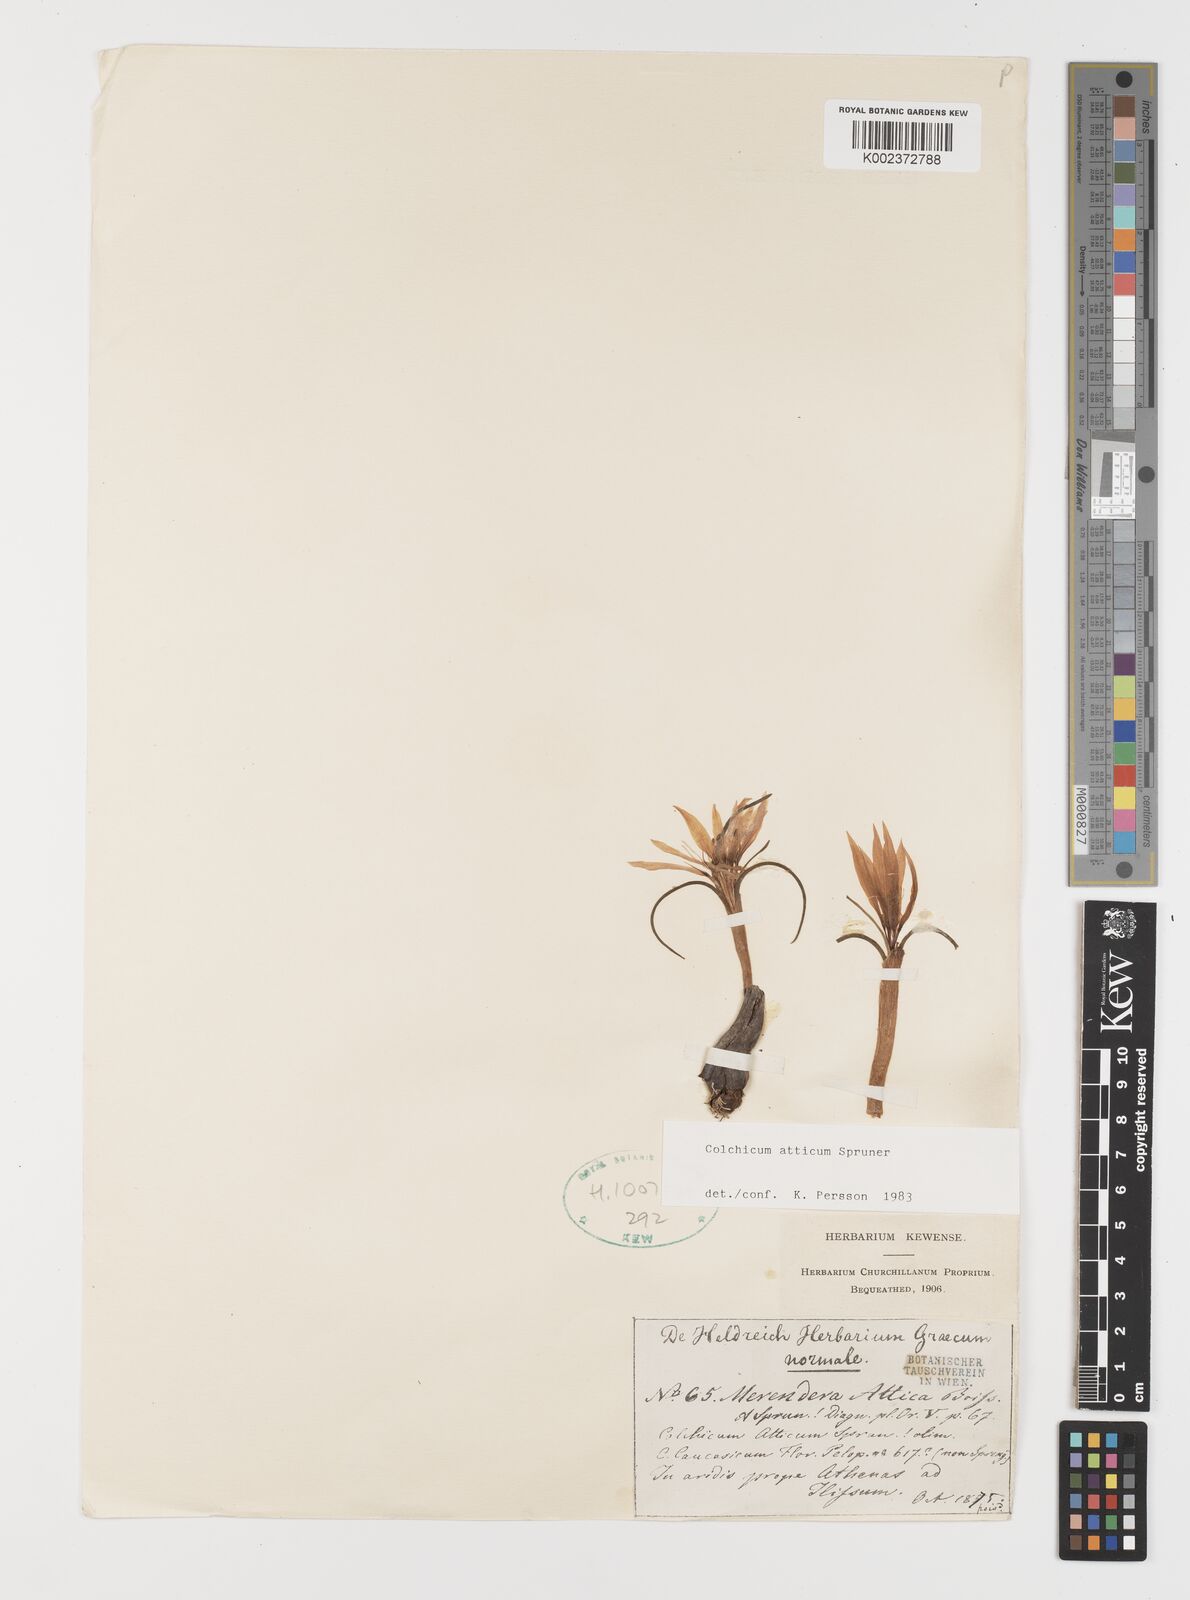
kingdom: Plantae
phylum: Tracheophyta
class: Liliopsida
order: Liliales
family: Colchicaceae
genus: Colchicum
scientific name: Colchicum atticum
